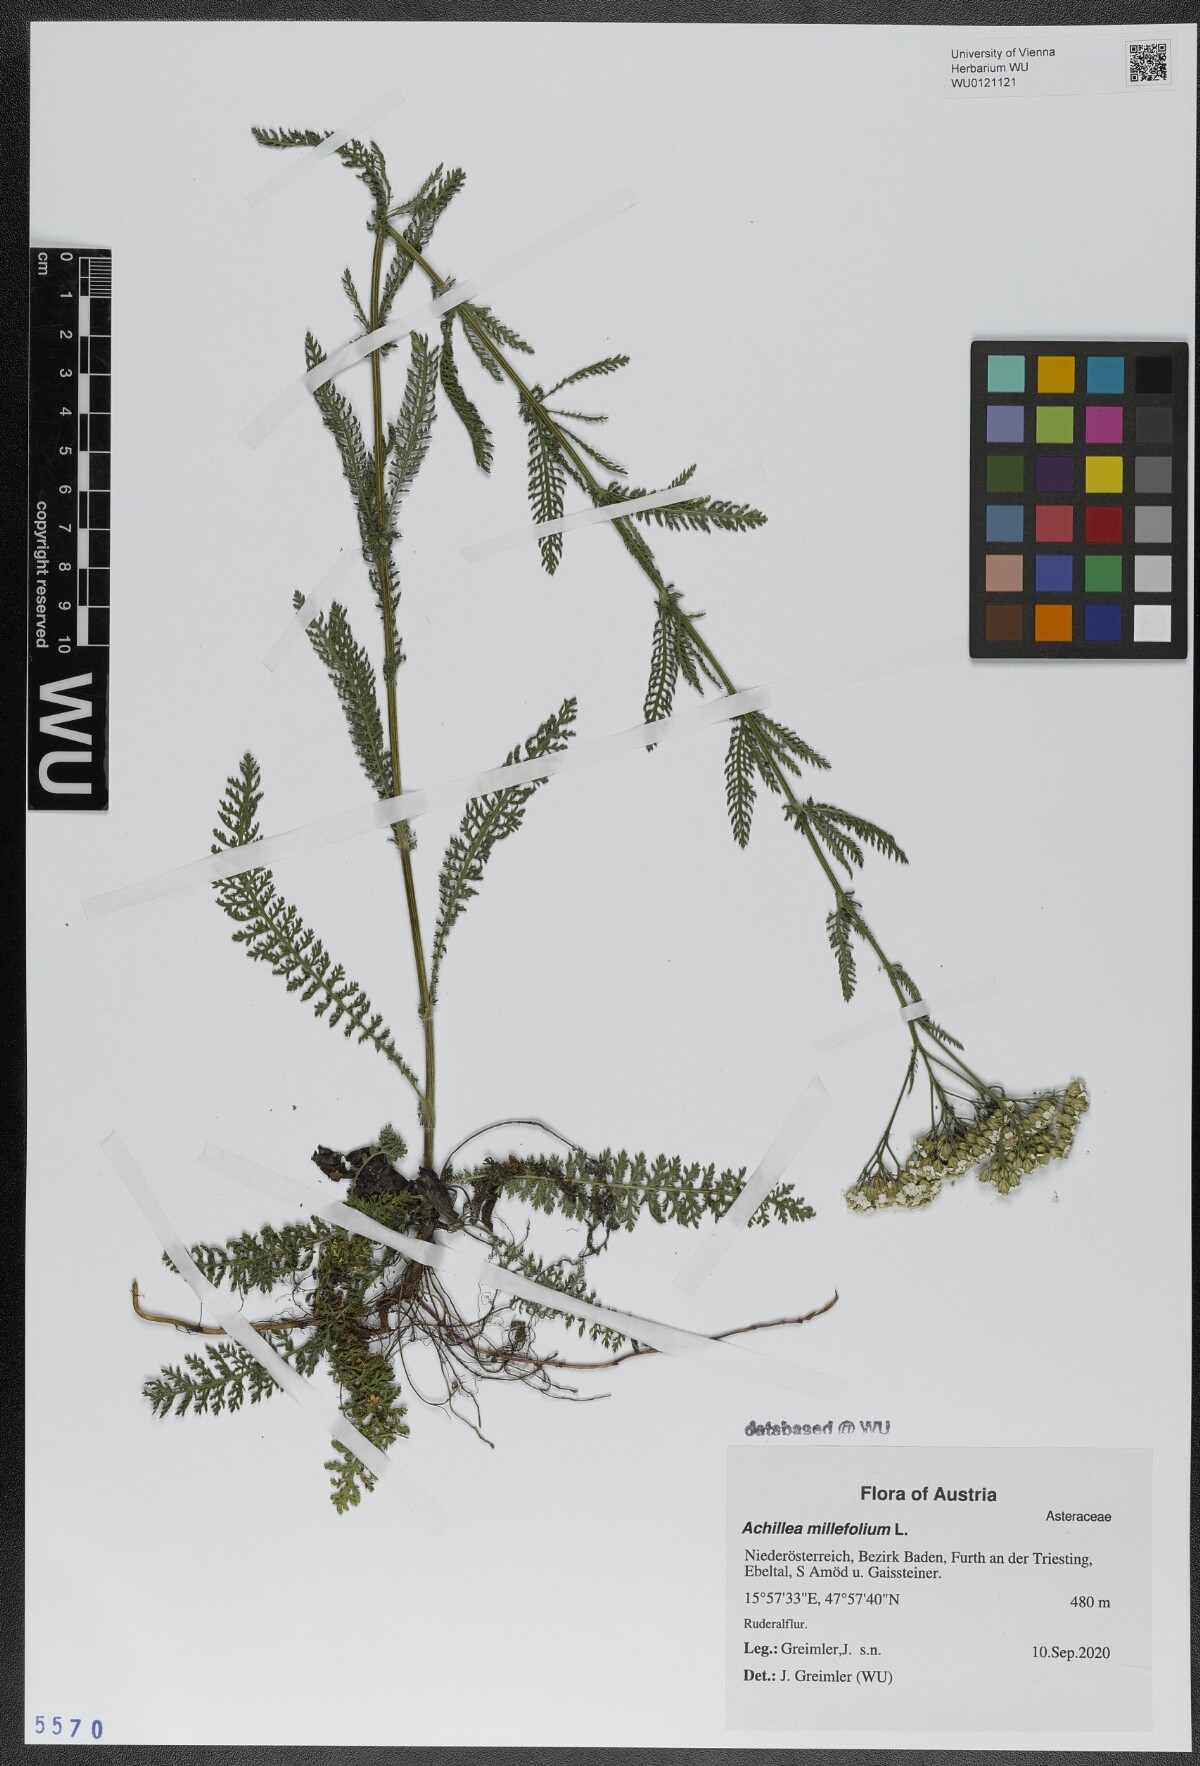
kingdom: Plantae
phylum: Tracheophyta
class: Magnoliopsida
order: Asterales
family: Asteraceae
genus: Achillea
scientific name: Achillea millefolium
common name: Yarrow
